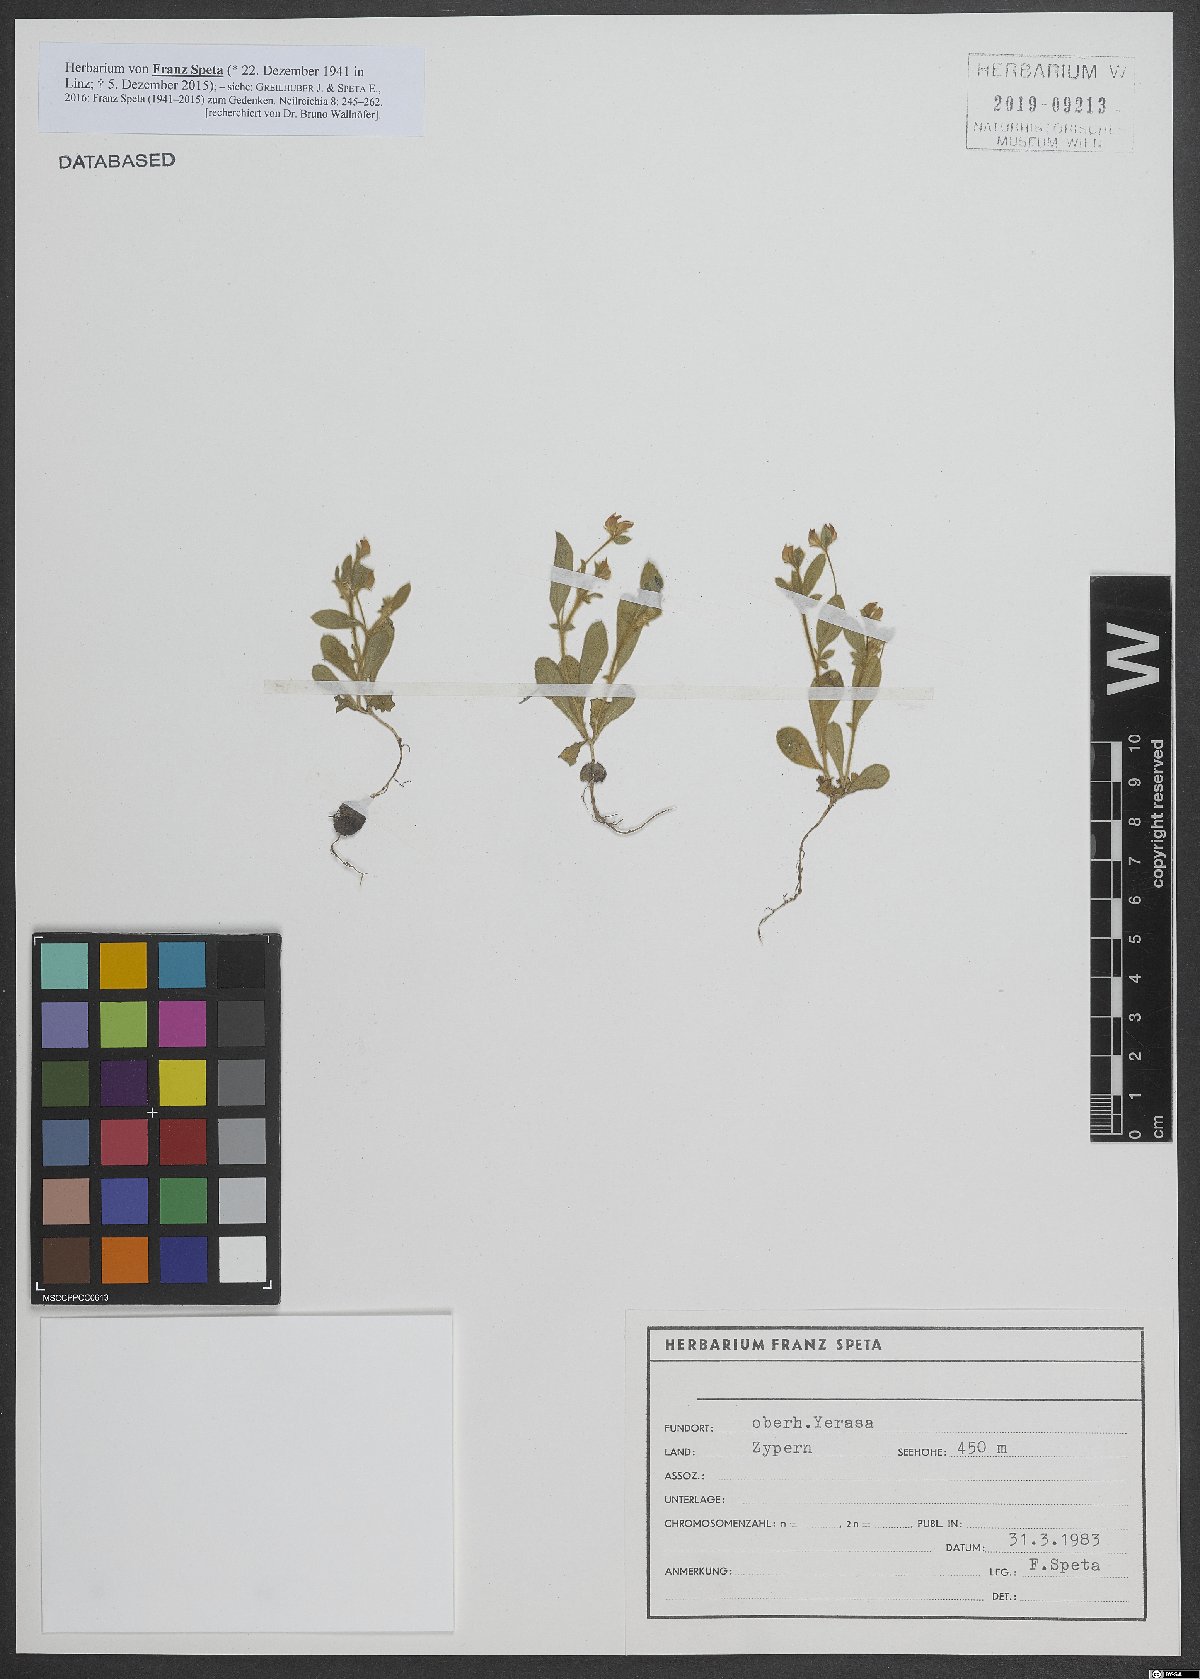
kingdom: Plantae
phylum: Tracheophyta
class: Magnoliopsida
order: Fabales
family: Fabaceae
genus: Anthyllis
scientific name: Anthyllis circinnata
